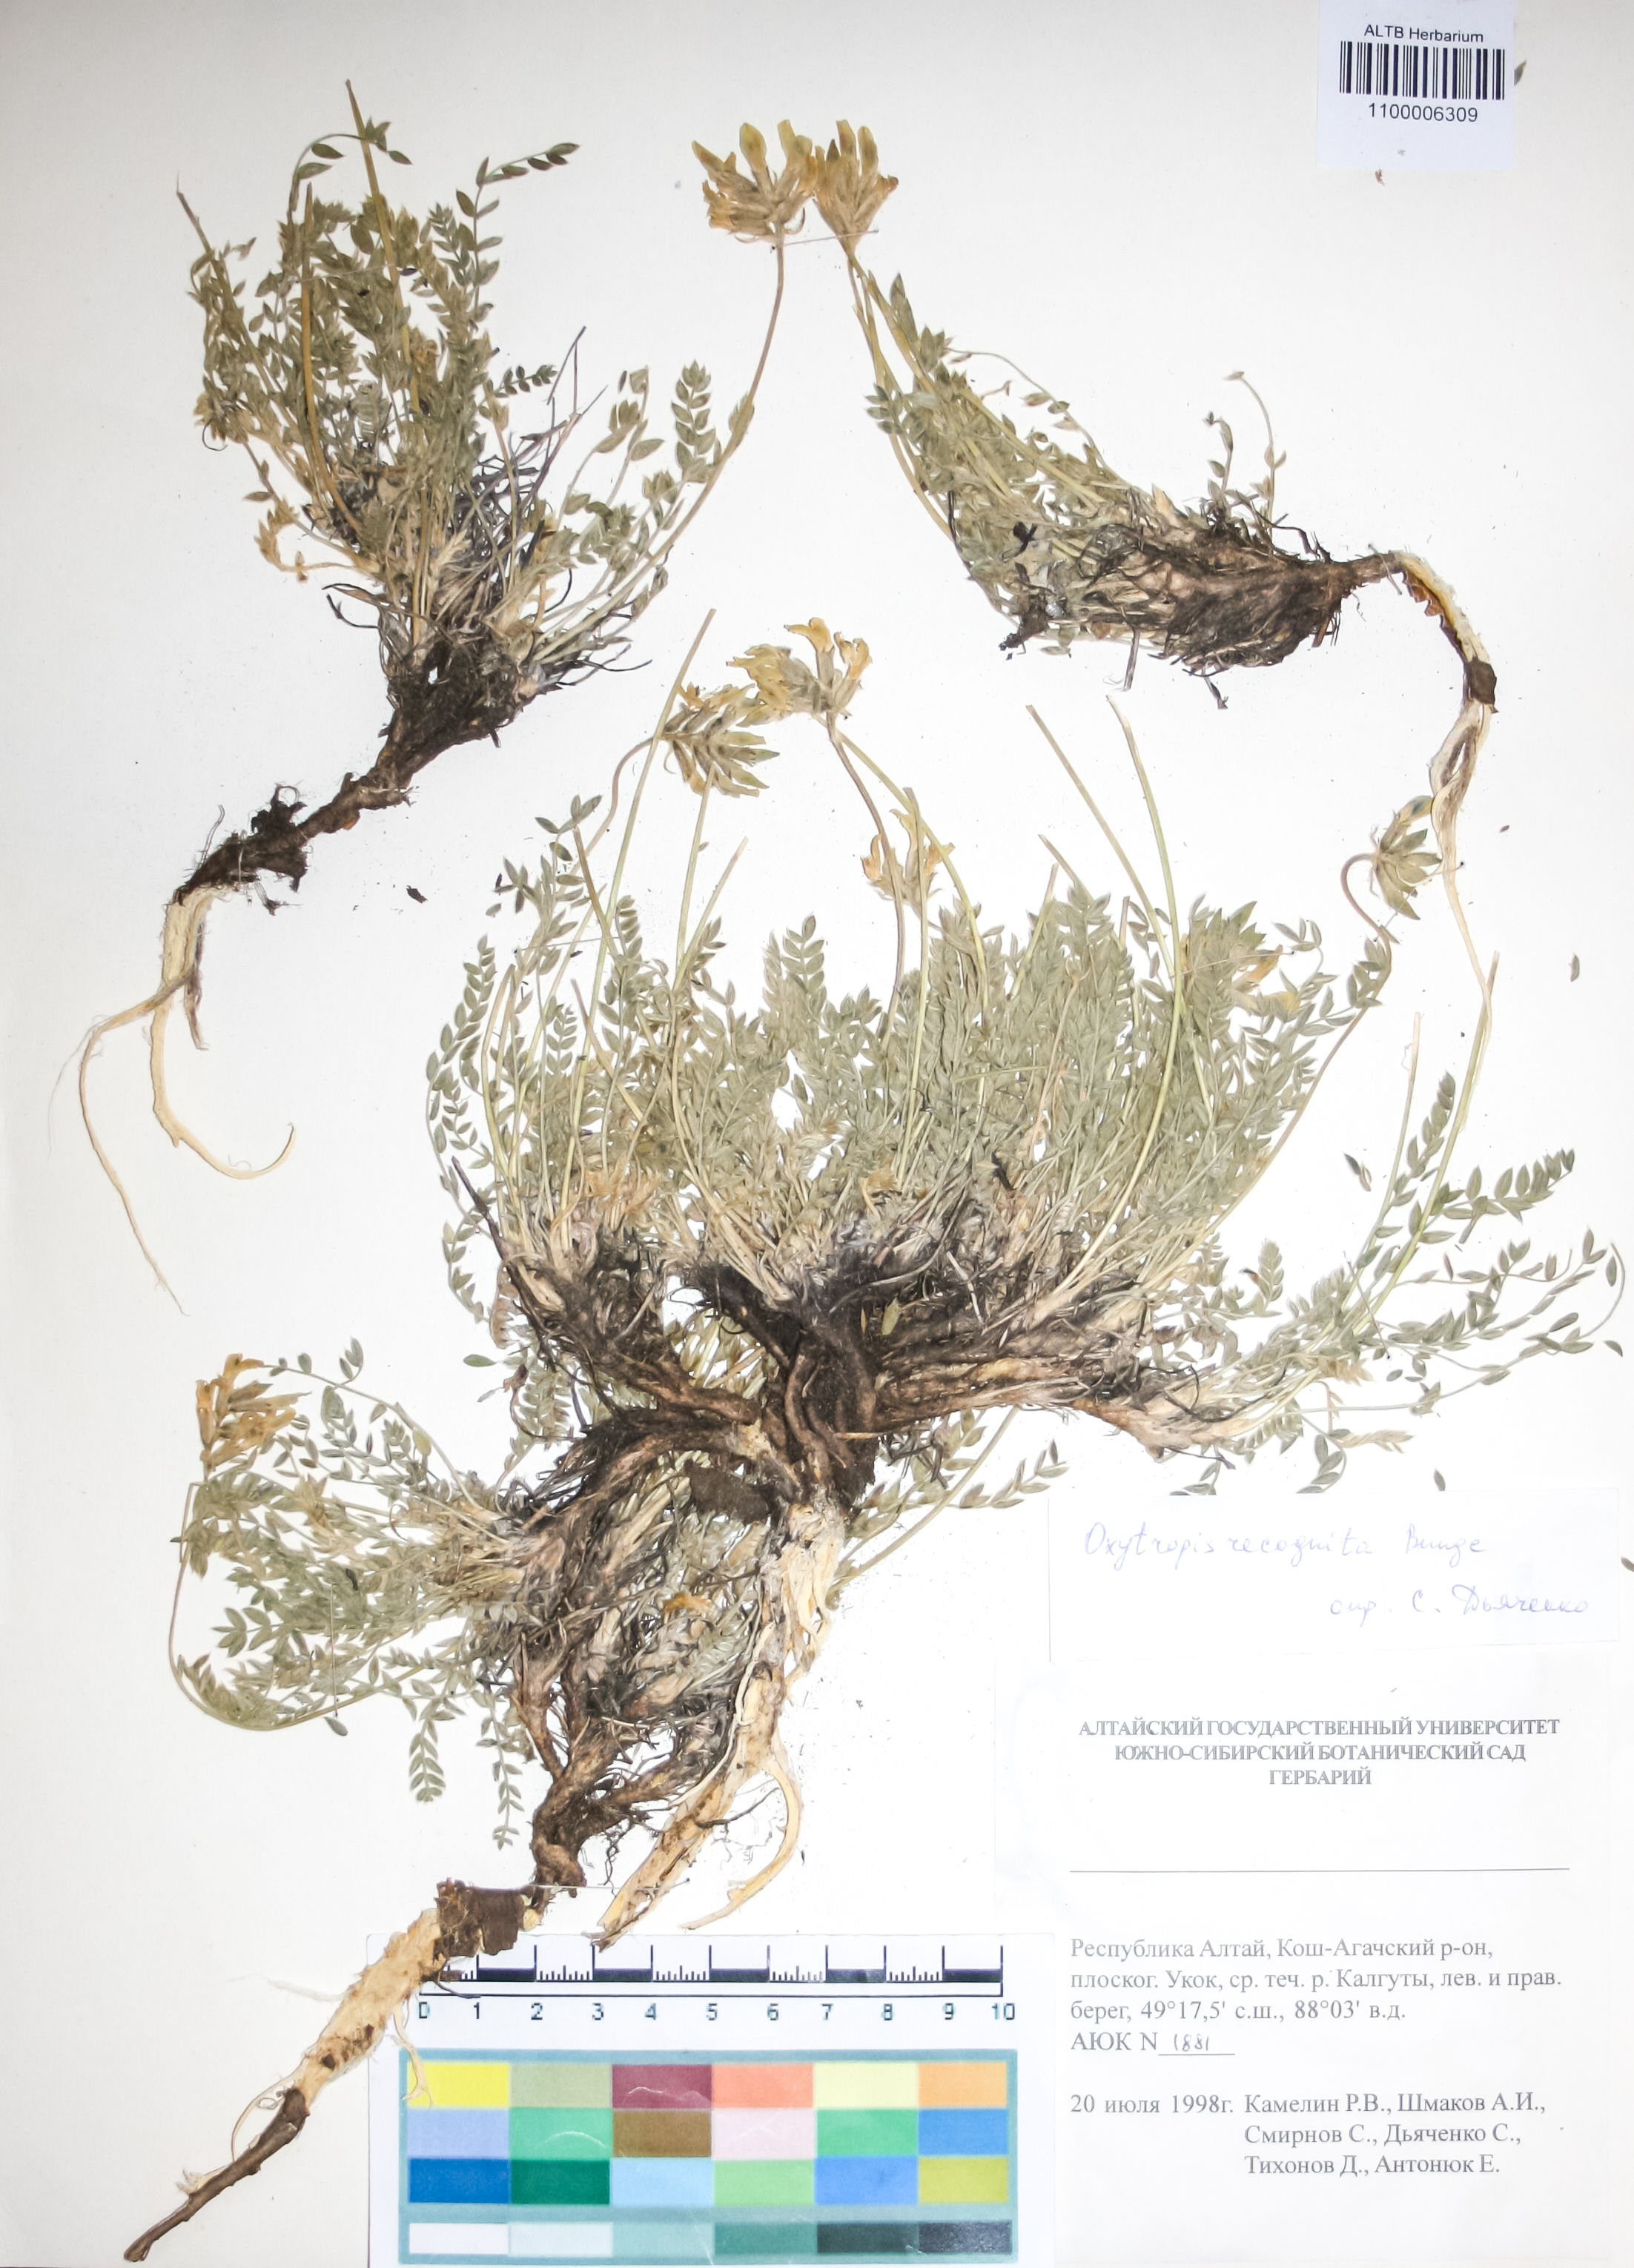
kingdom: Plantae
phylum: Tracheophyta
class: Magnoliopsida
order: Fabales
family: Fabaceae
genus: Oxytropis
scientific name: Oxytropis recognita
